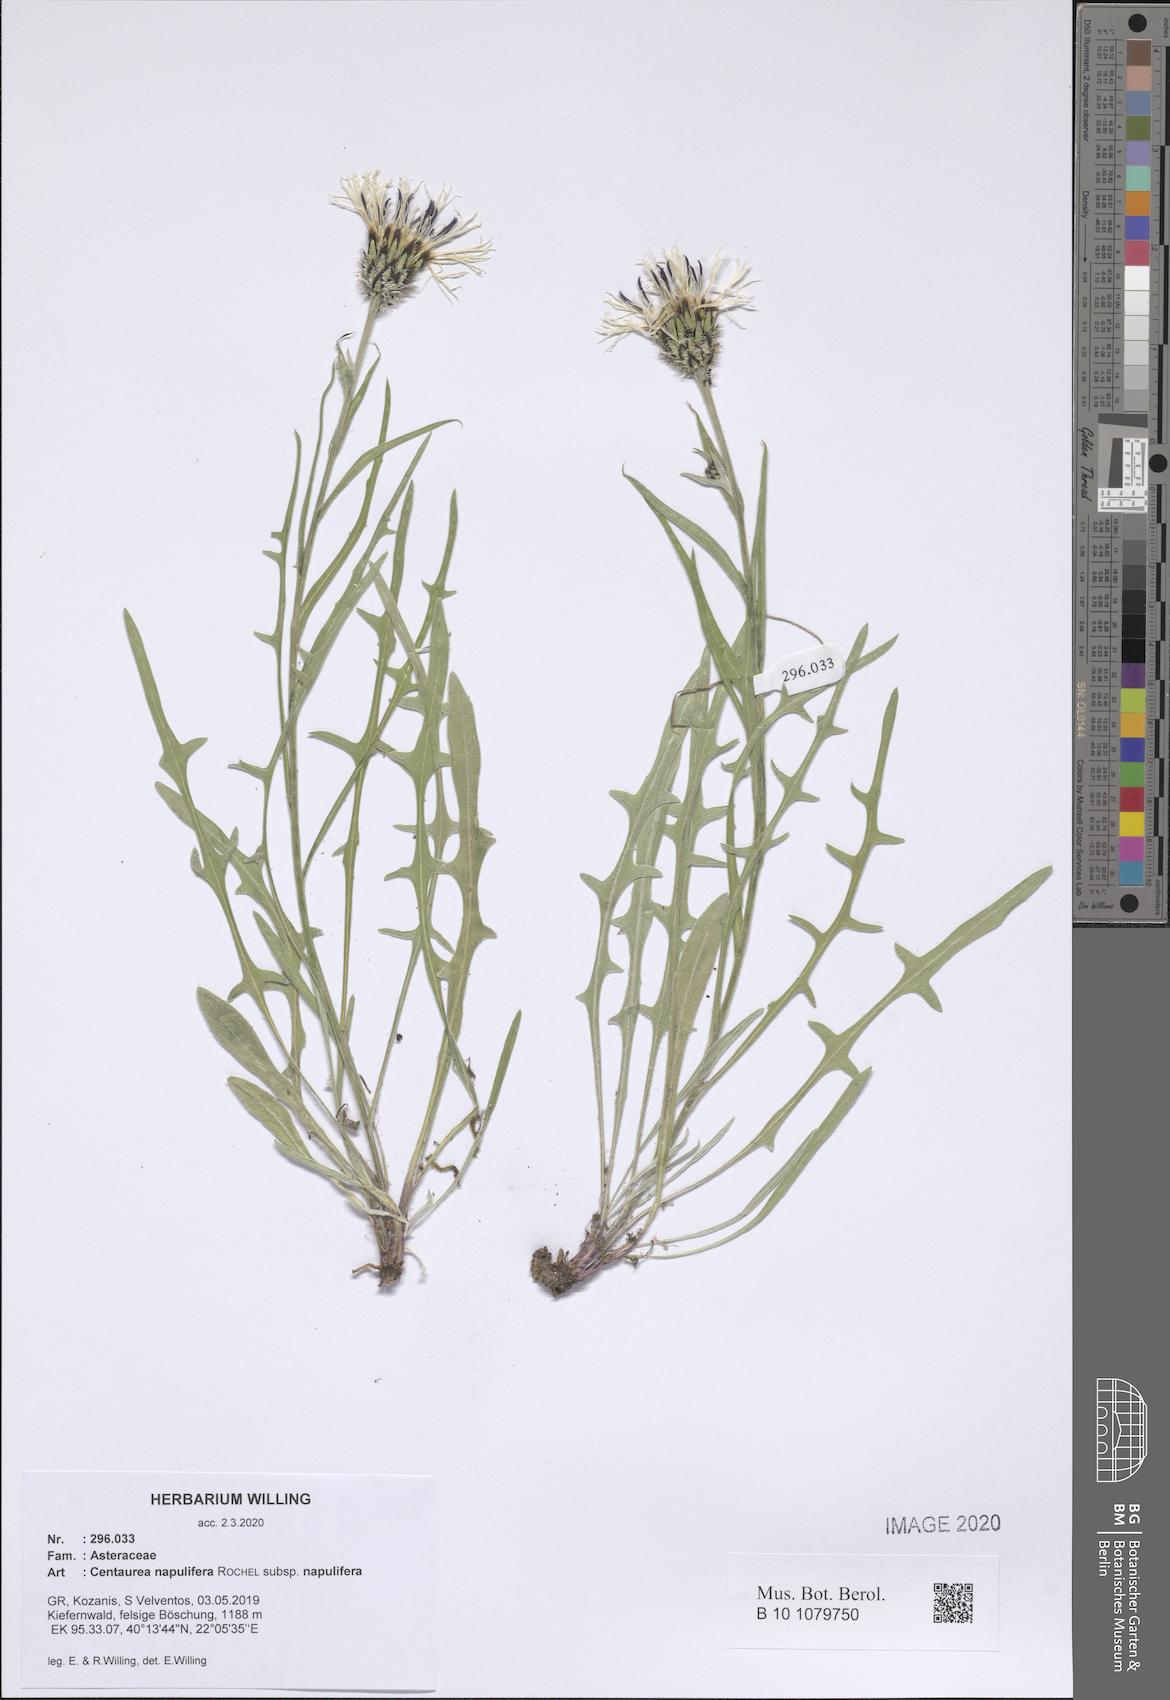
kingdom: Plantae
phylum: Tracheophyta
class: Magnoliopsida
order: Asterales
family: Asteraceae
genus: Centaurea
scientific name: Centaurea napulifera
